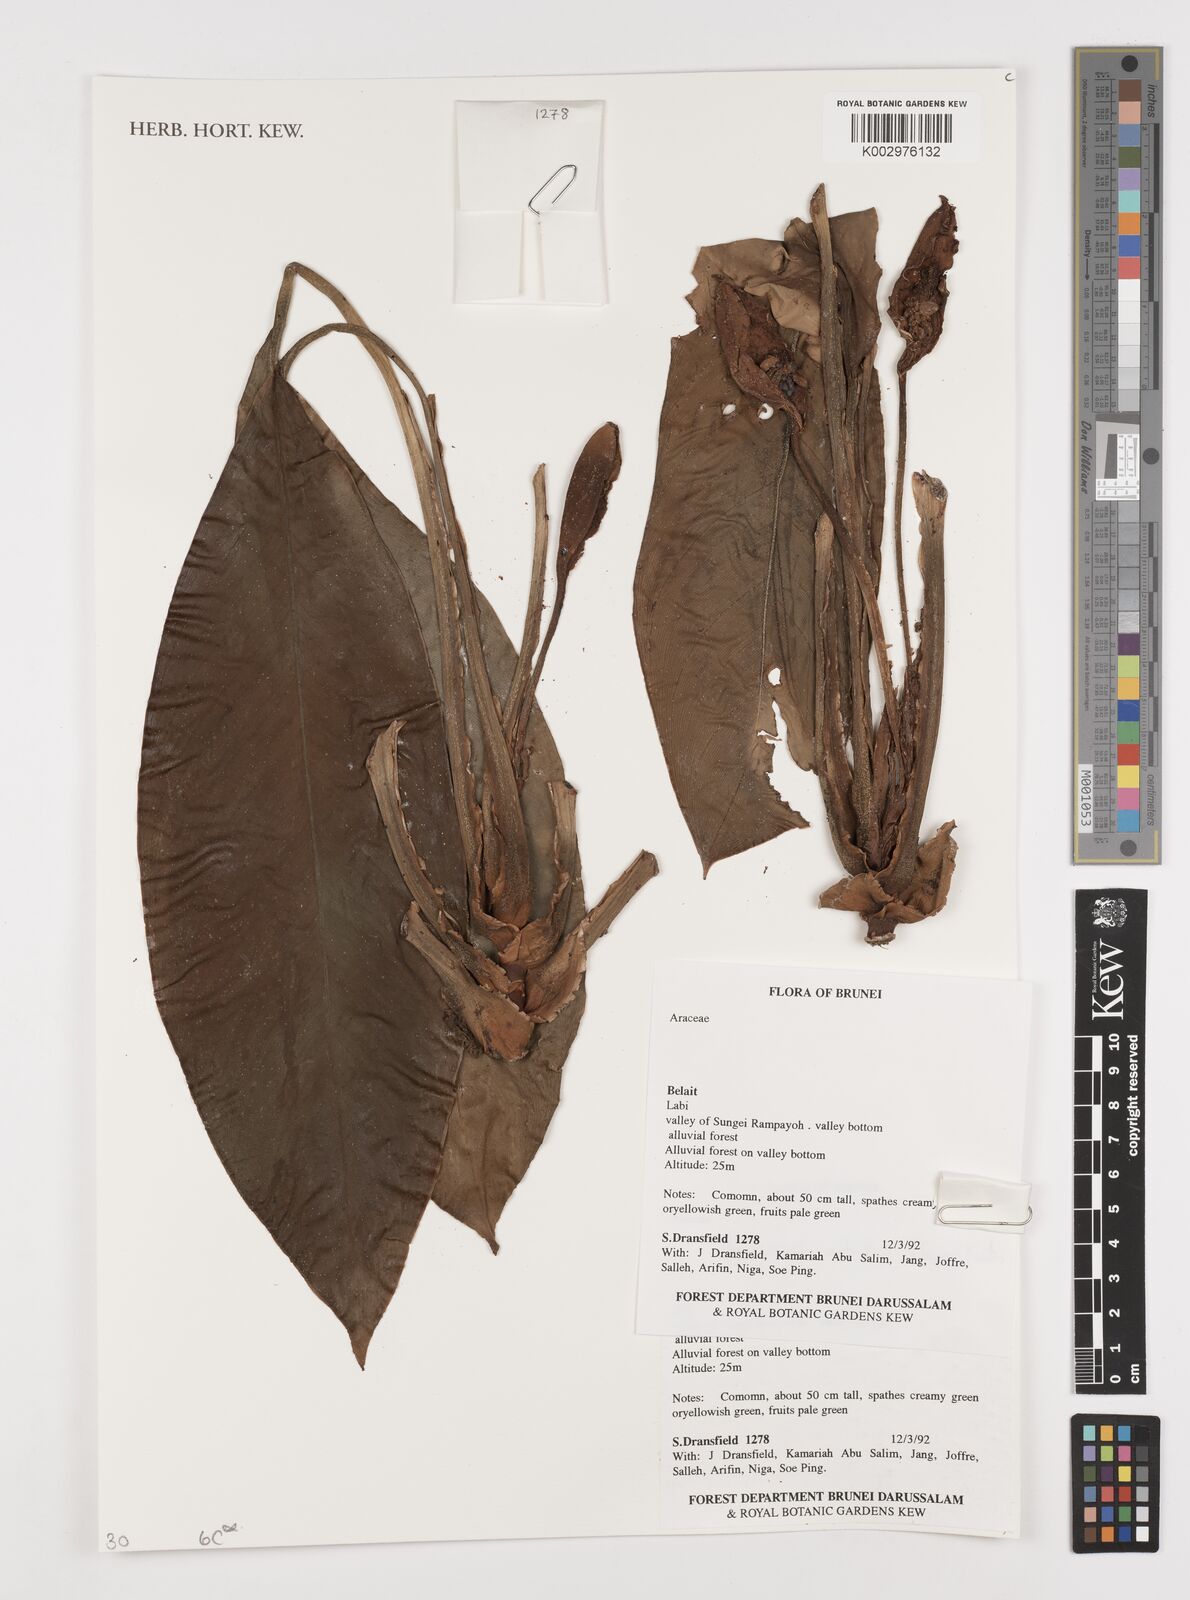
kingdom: Plantae
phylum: Tracheophyta
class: Liliopsida
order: Alismatales
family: Araceae
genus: Aglaonema
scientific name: Aglaonema nitidum
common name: Aglaonema aroid
